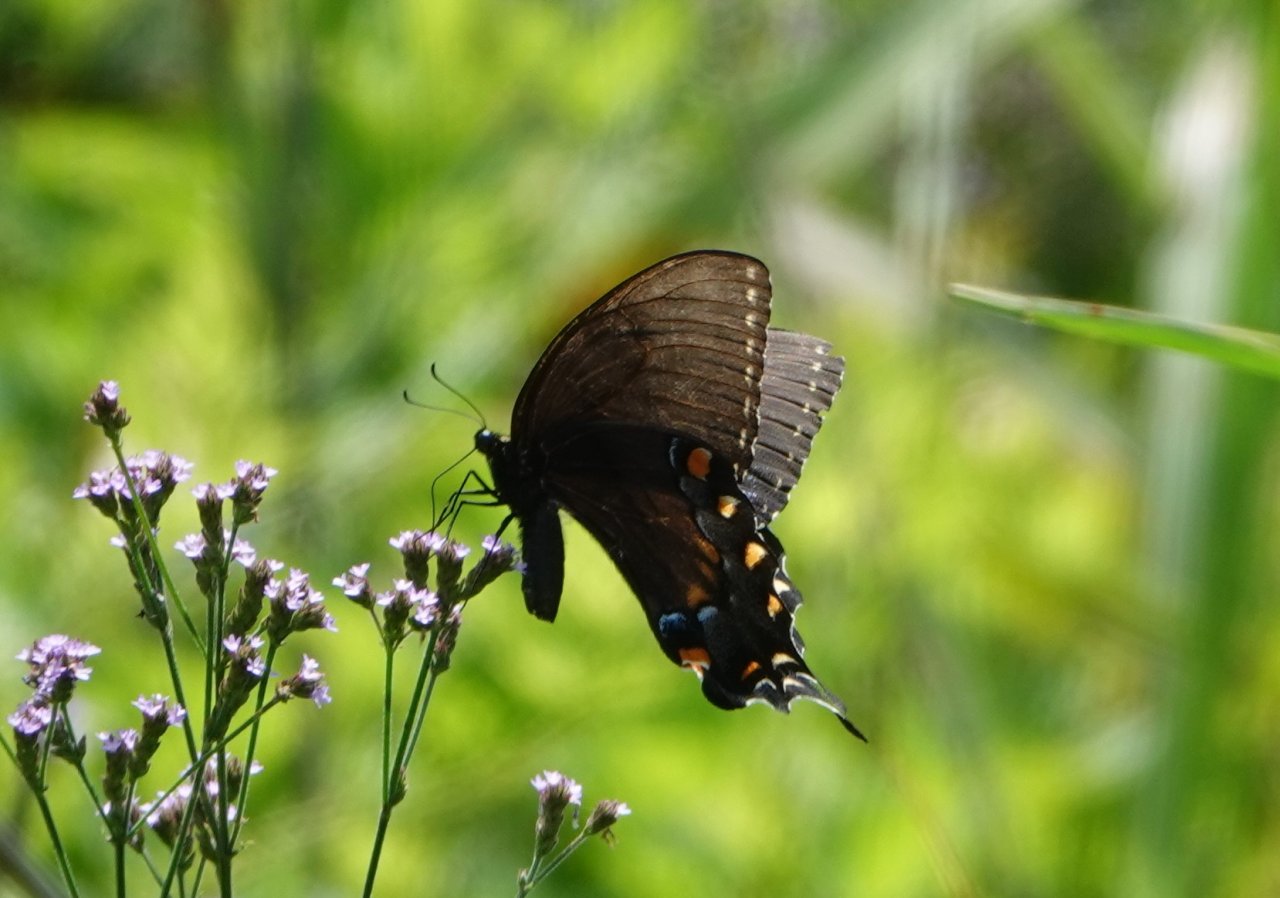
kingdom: Animalia
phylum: Arthropoda
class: Insecta
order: Lepidoptera
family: Papilionidae
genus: Pterourus
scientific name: Pterourus glaucus
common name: Eastern Tiger Swallowtail
